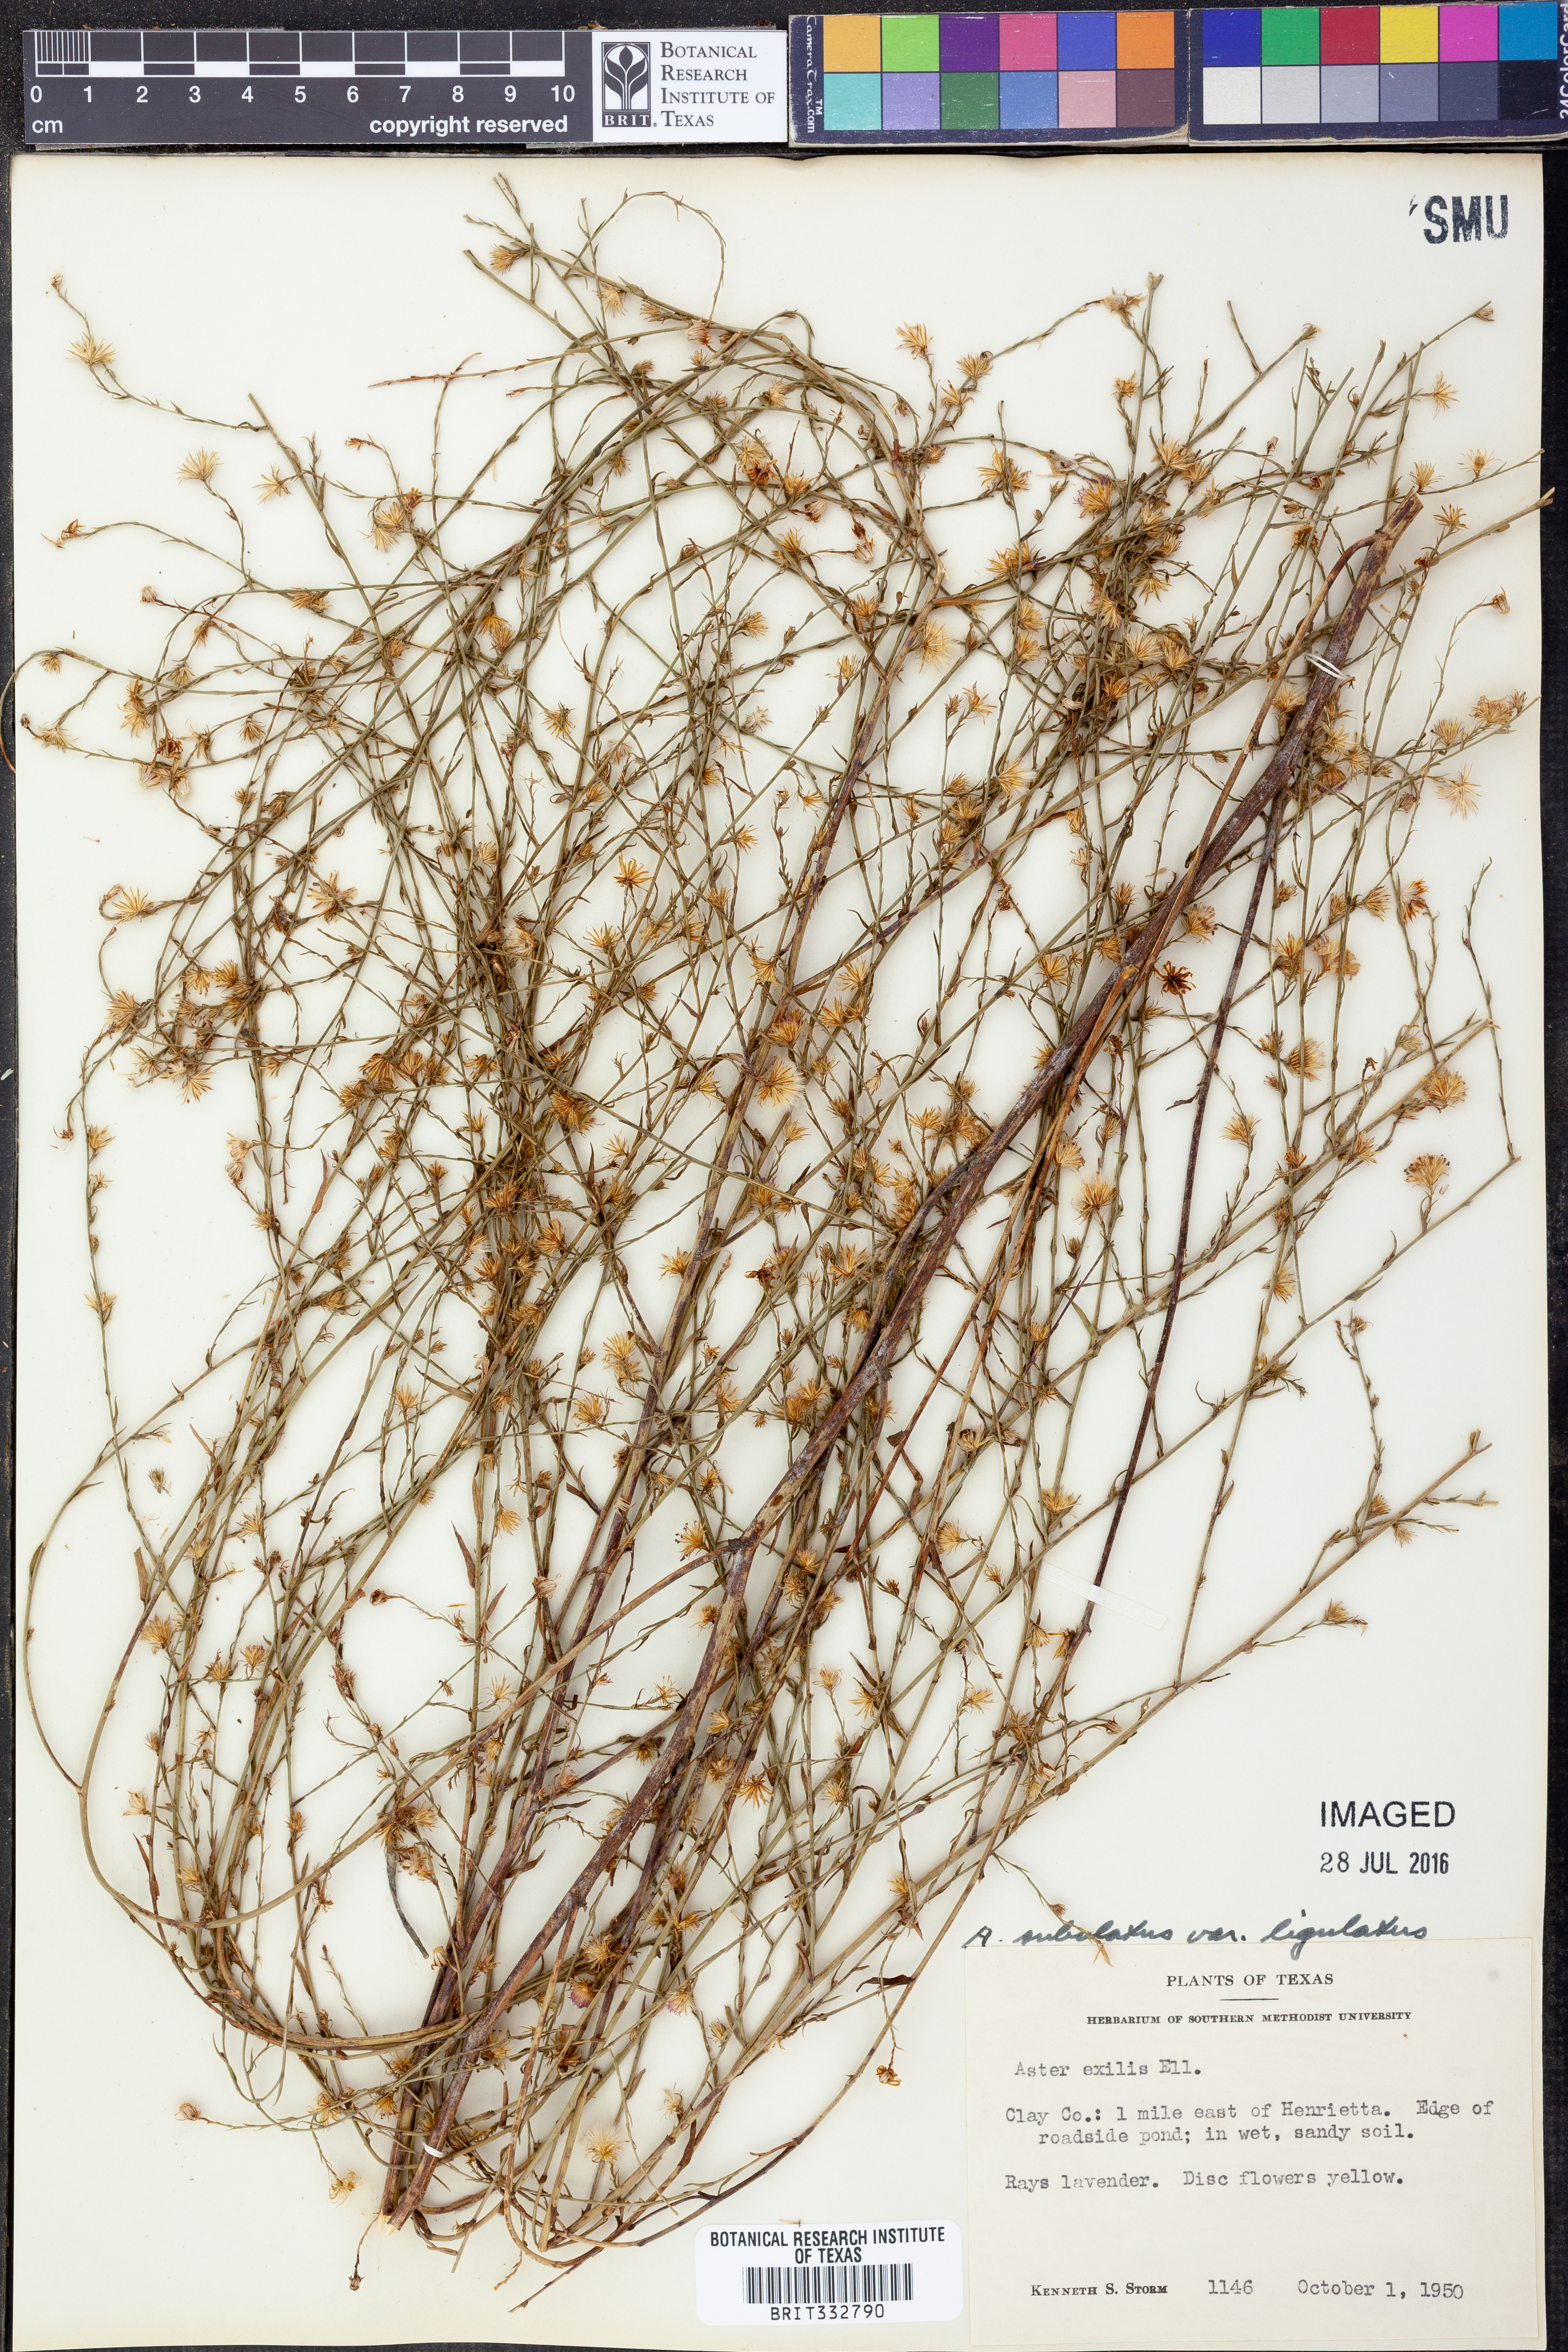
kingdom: Plantae
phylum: Tracheophyta
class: Magnoliopsida
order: Asterales
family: Asteraceae
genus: Symphyotrichum
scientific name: Symphyotrichum divaricatum
